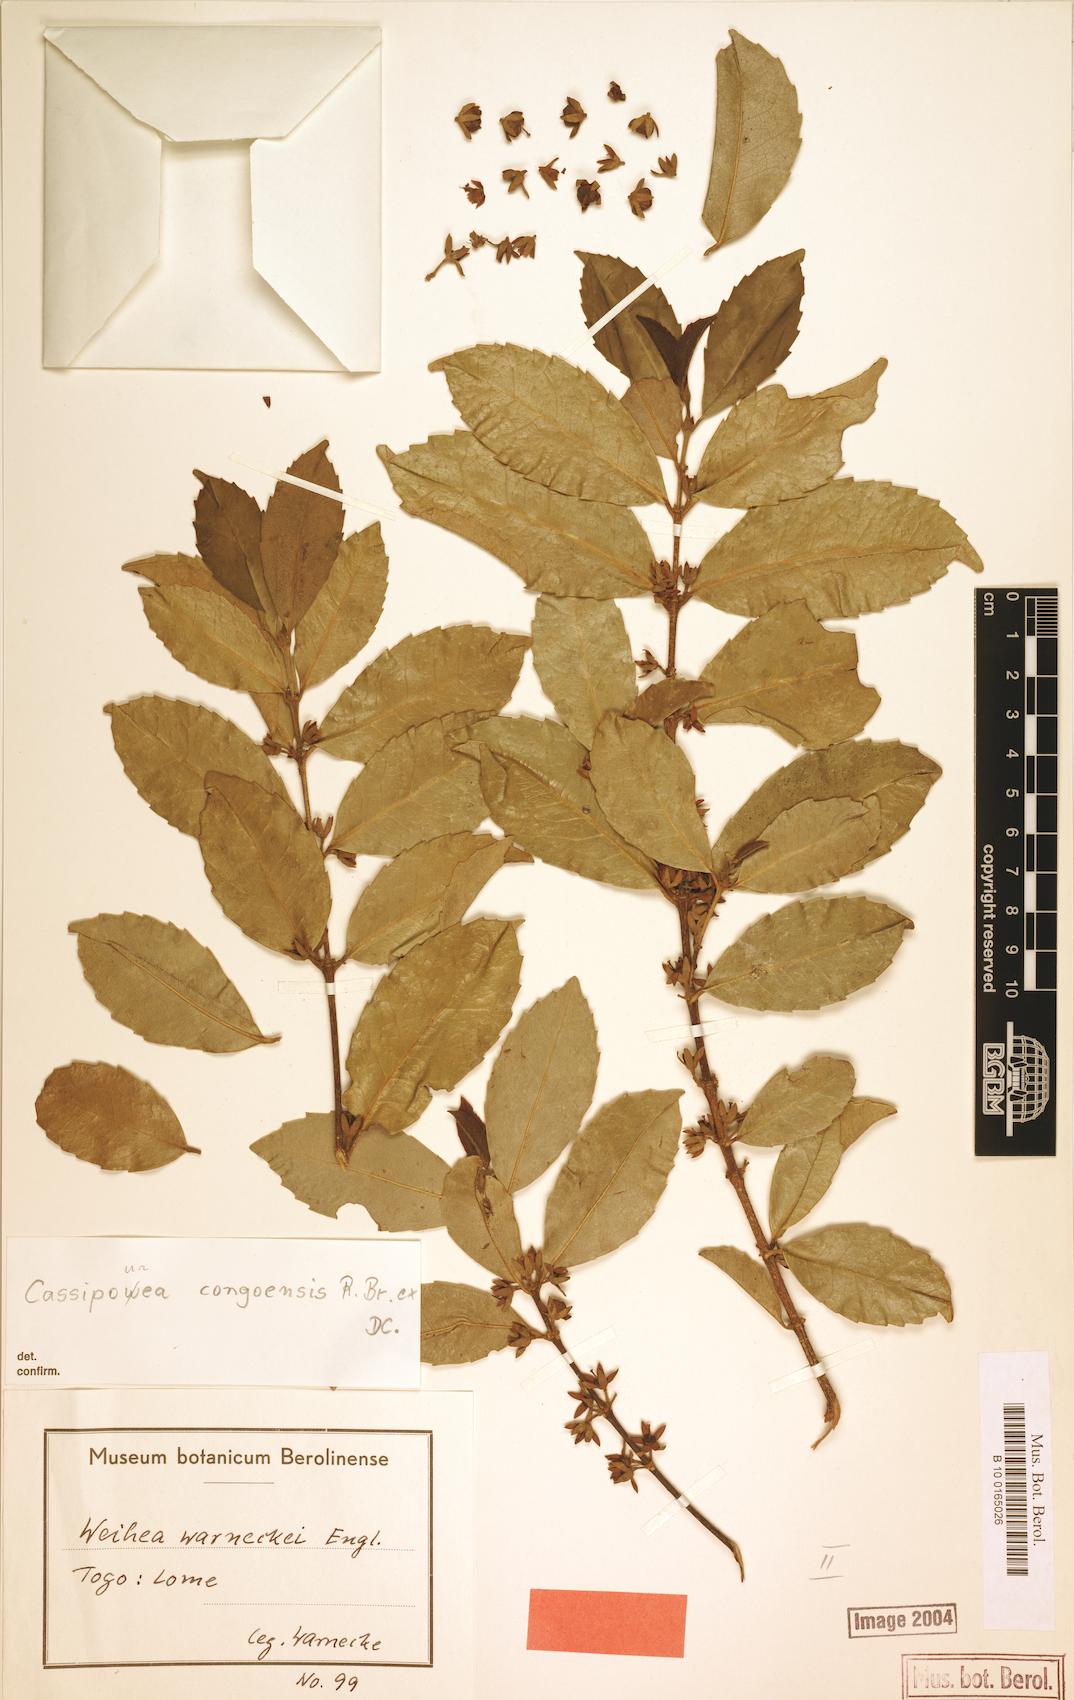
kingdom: Plantae
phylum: Tracheophyta
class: Magnoliopsida
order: Malpighiales
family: Rhizophoraceae
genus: Cassipourea
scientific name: Cassipourea congoensis
